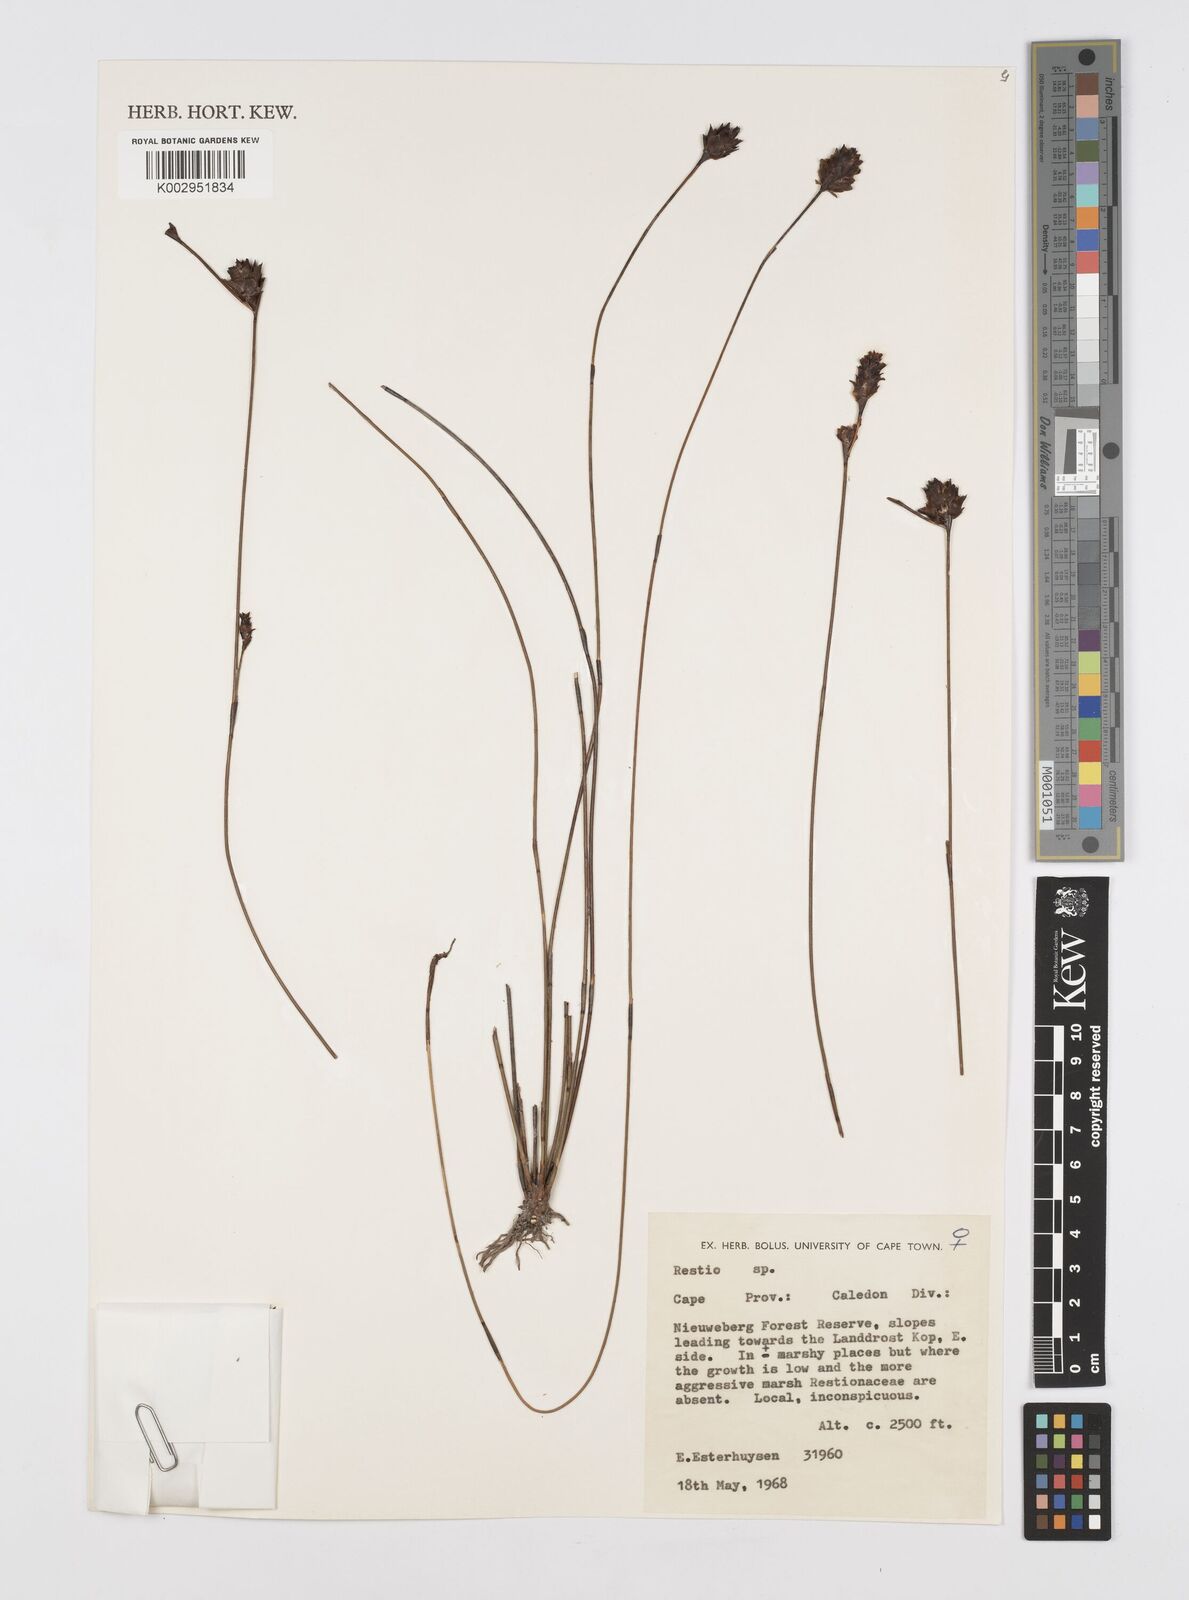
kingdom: Plantae
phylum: Tracheophyta
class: Liliopsida
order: Poales
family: Restionaceae
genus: Restio
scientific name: Restio
